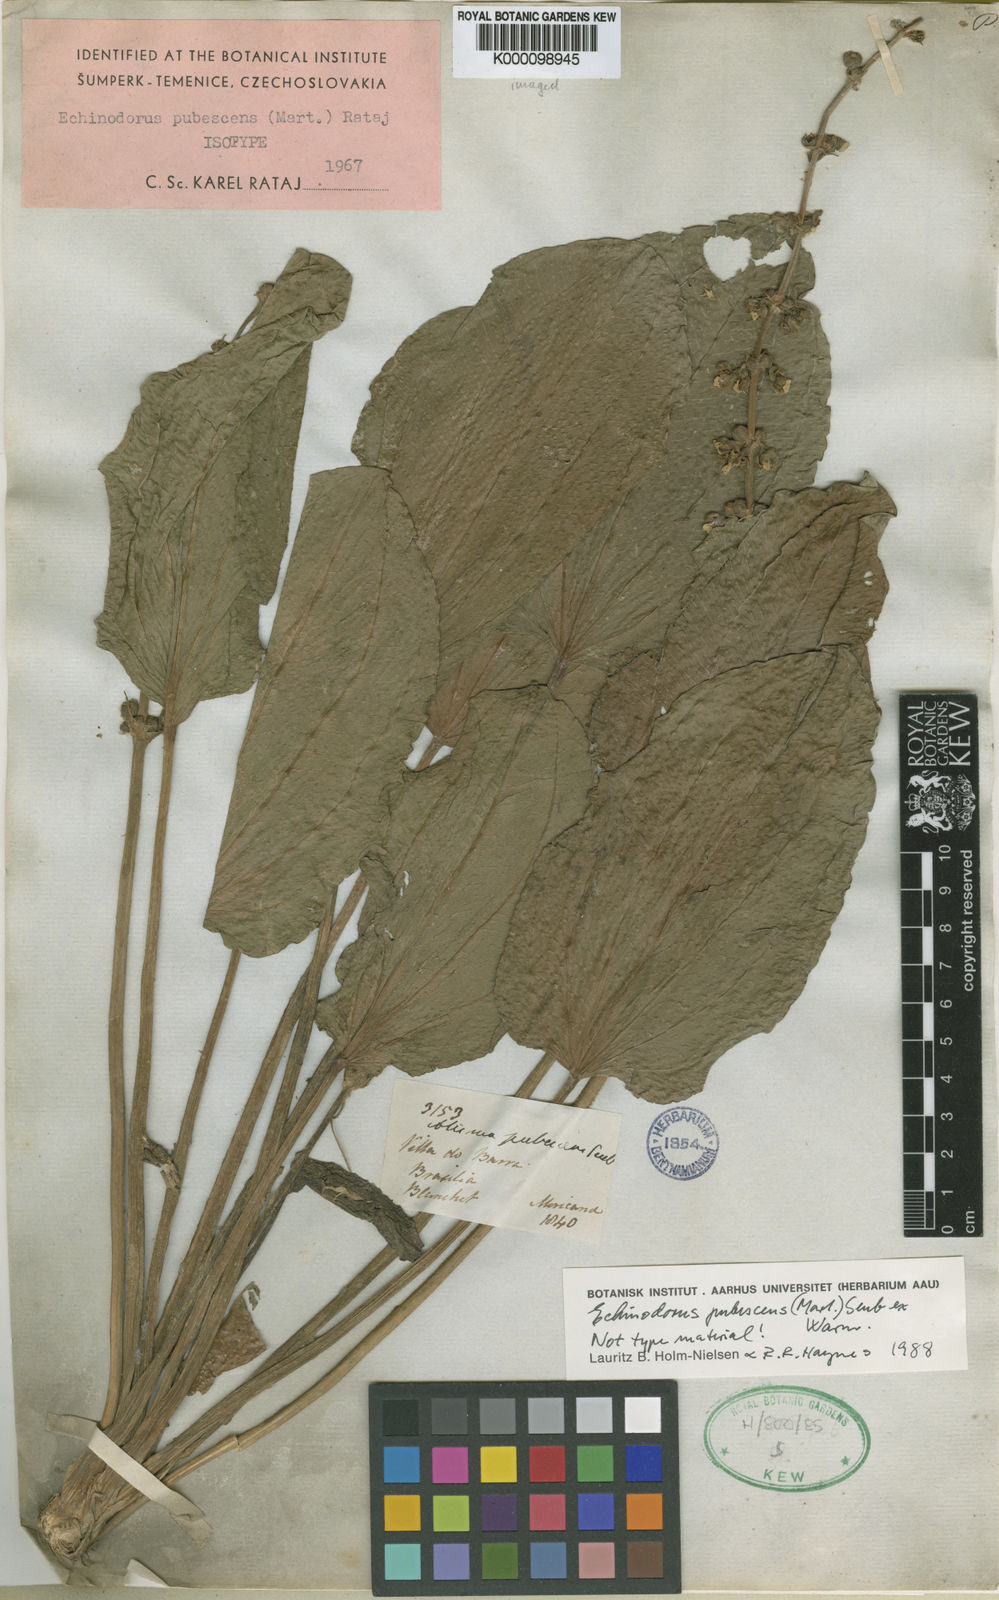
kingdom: Plantae
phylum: Tracheophyta
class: Liliopsida
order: Alismatales
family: Alismataceae
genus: Aquarius
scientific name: Aquarius pubescens
